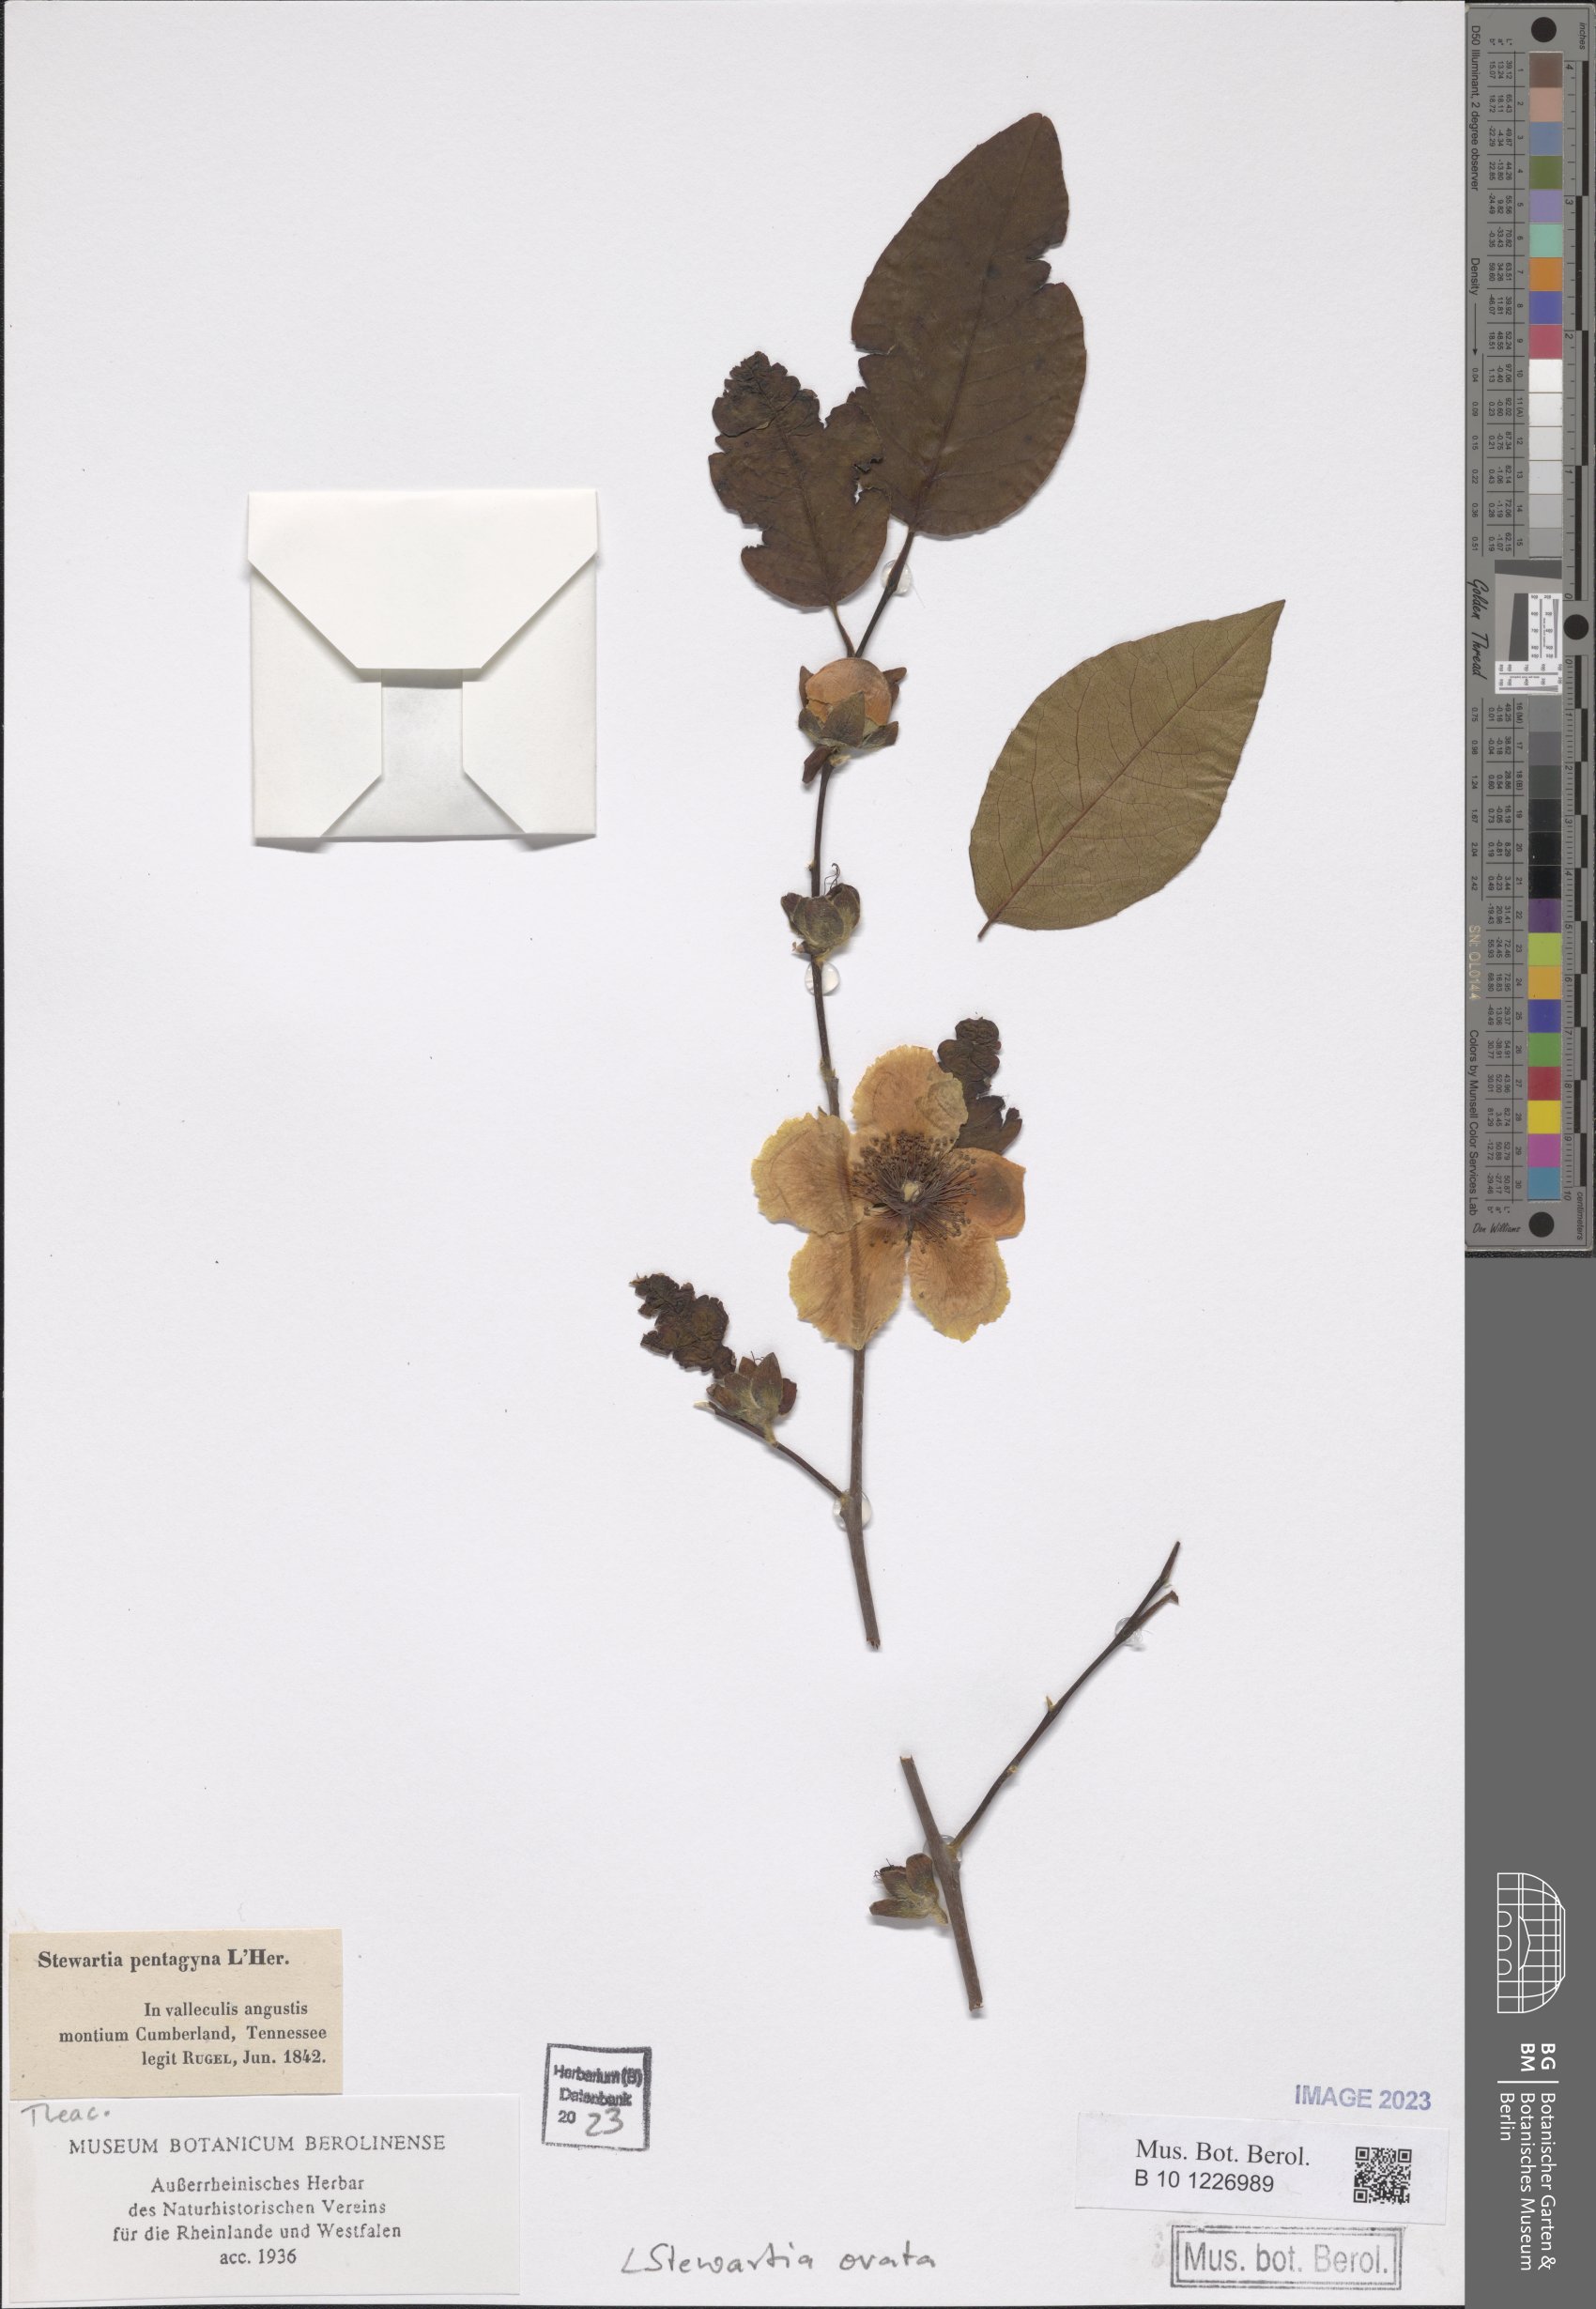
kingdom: Plantae
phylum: Tracheophyta
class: Magnoliopsida
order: Ericales
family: Theaceae
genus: Stewartia
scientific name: Stewartia ovata
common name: Mountain camellia
